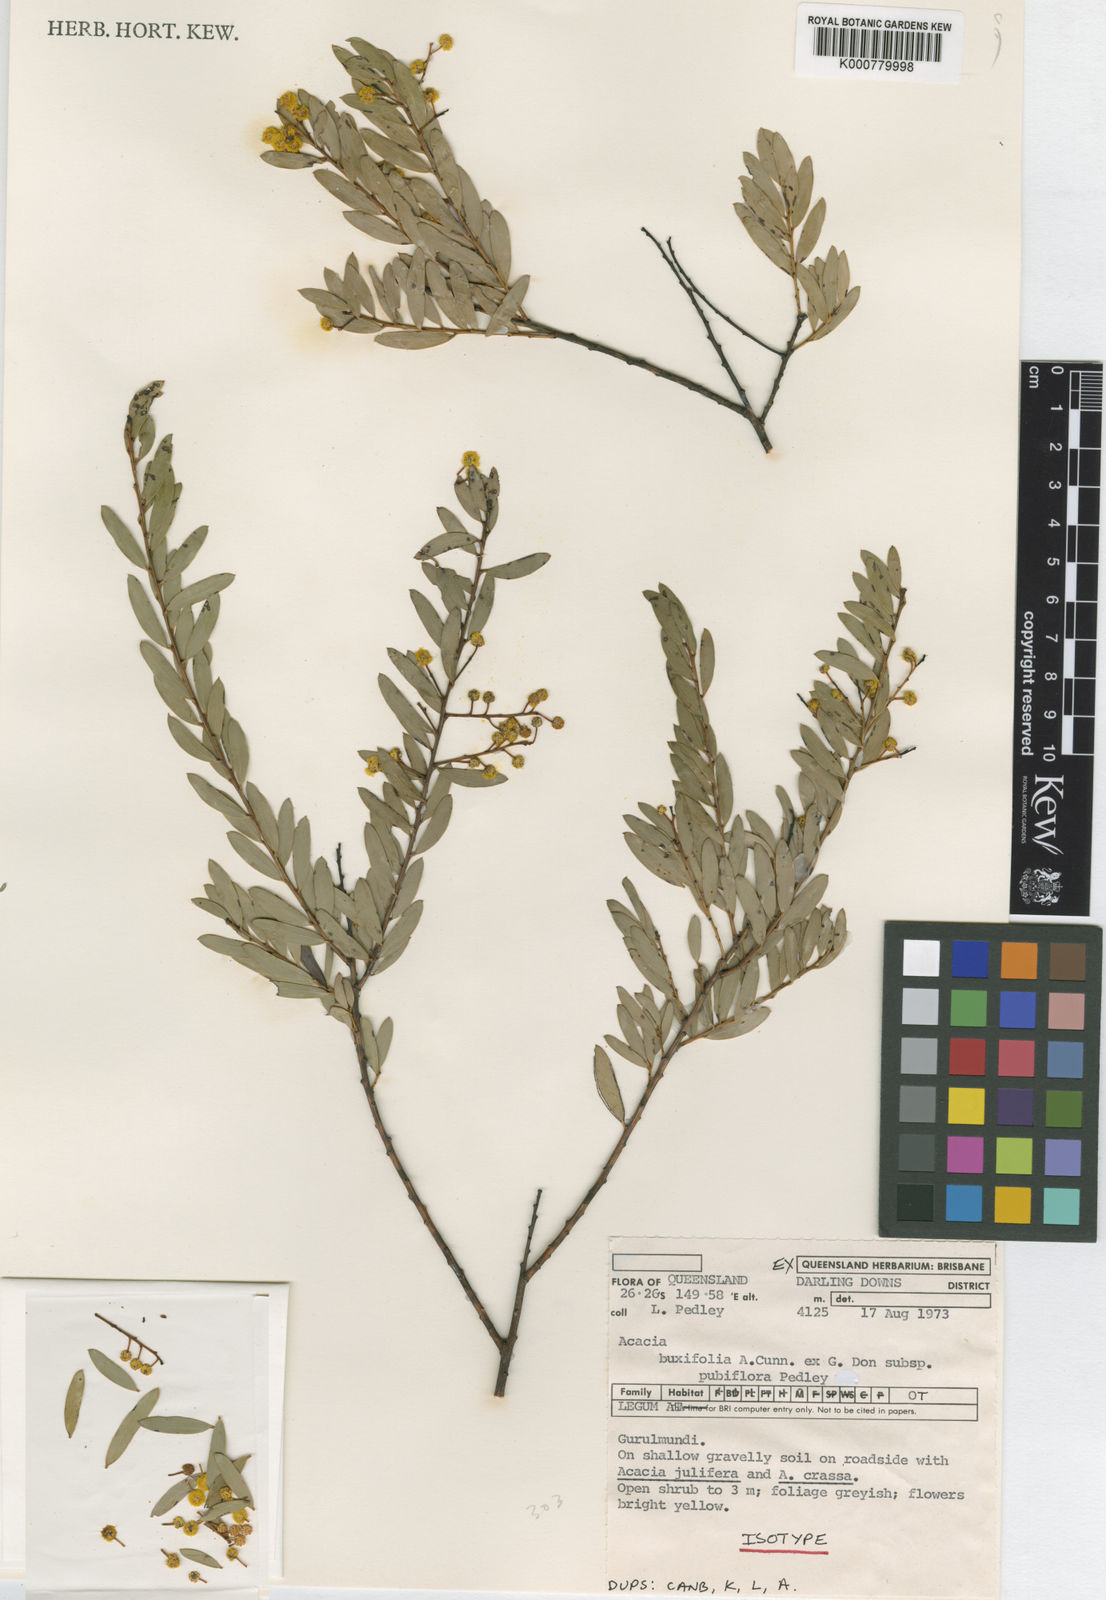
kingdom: Plantae
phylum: Tracheophyta
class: Magnoliopsida
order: Fabales
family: Fabaceae
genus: Acacia
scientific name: Acacia buxifolia
